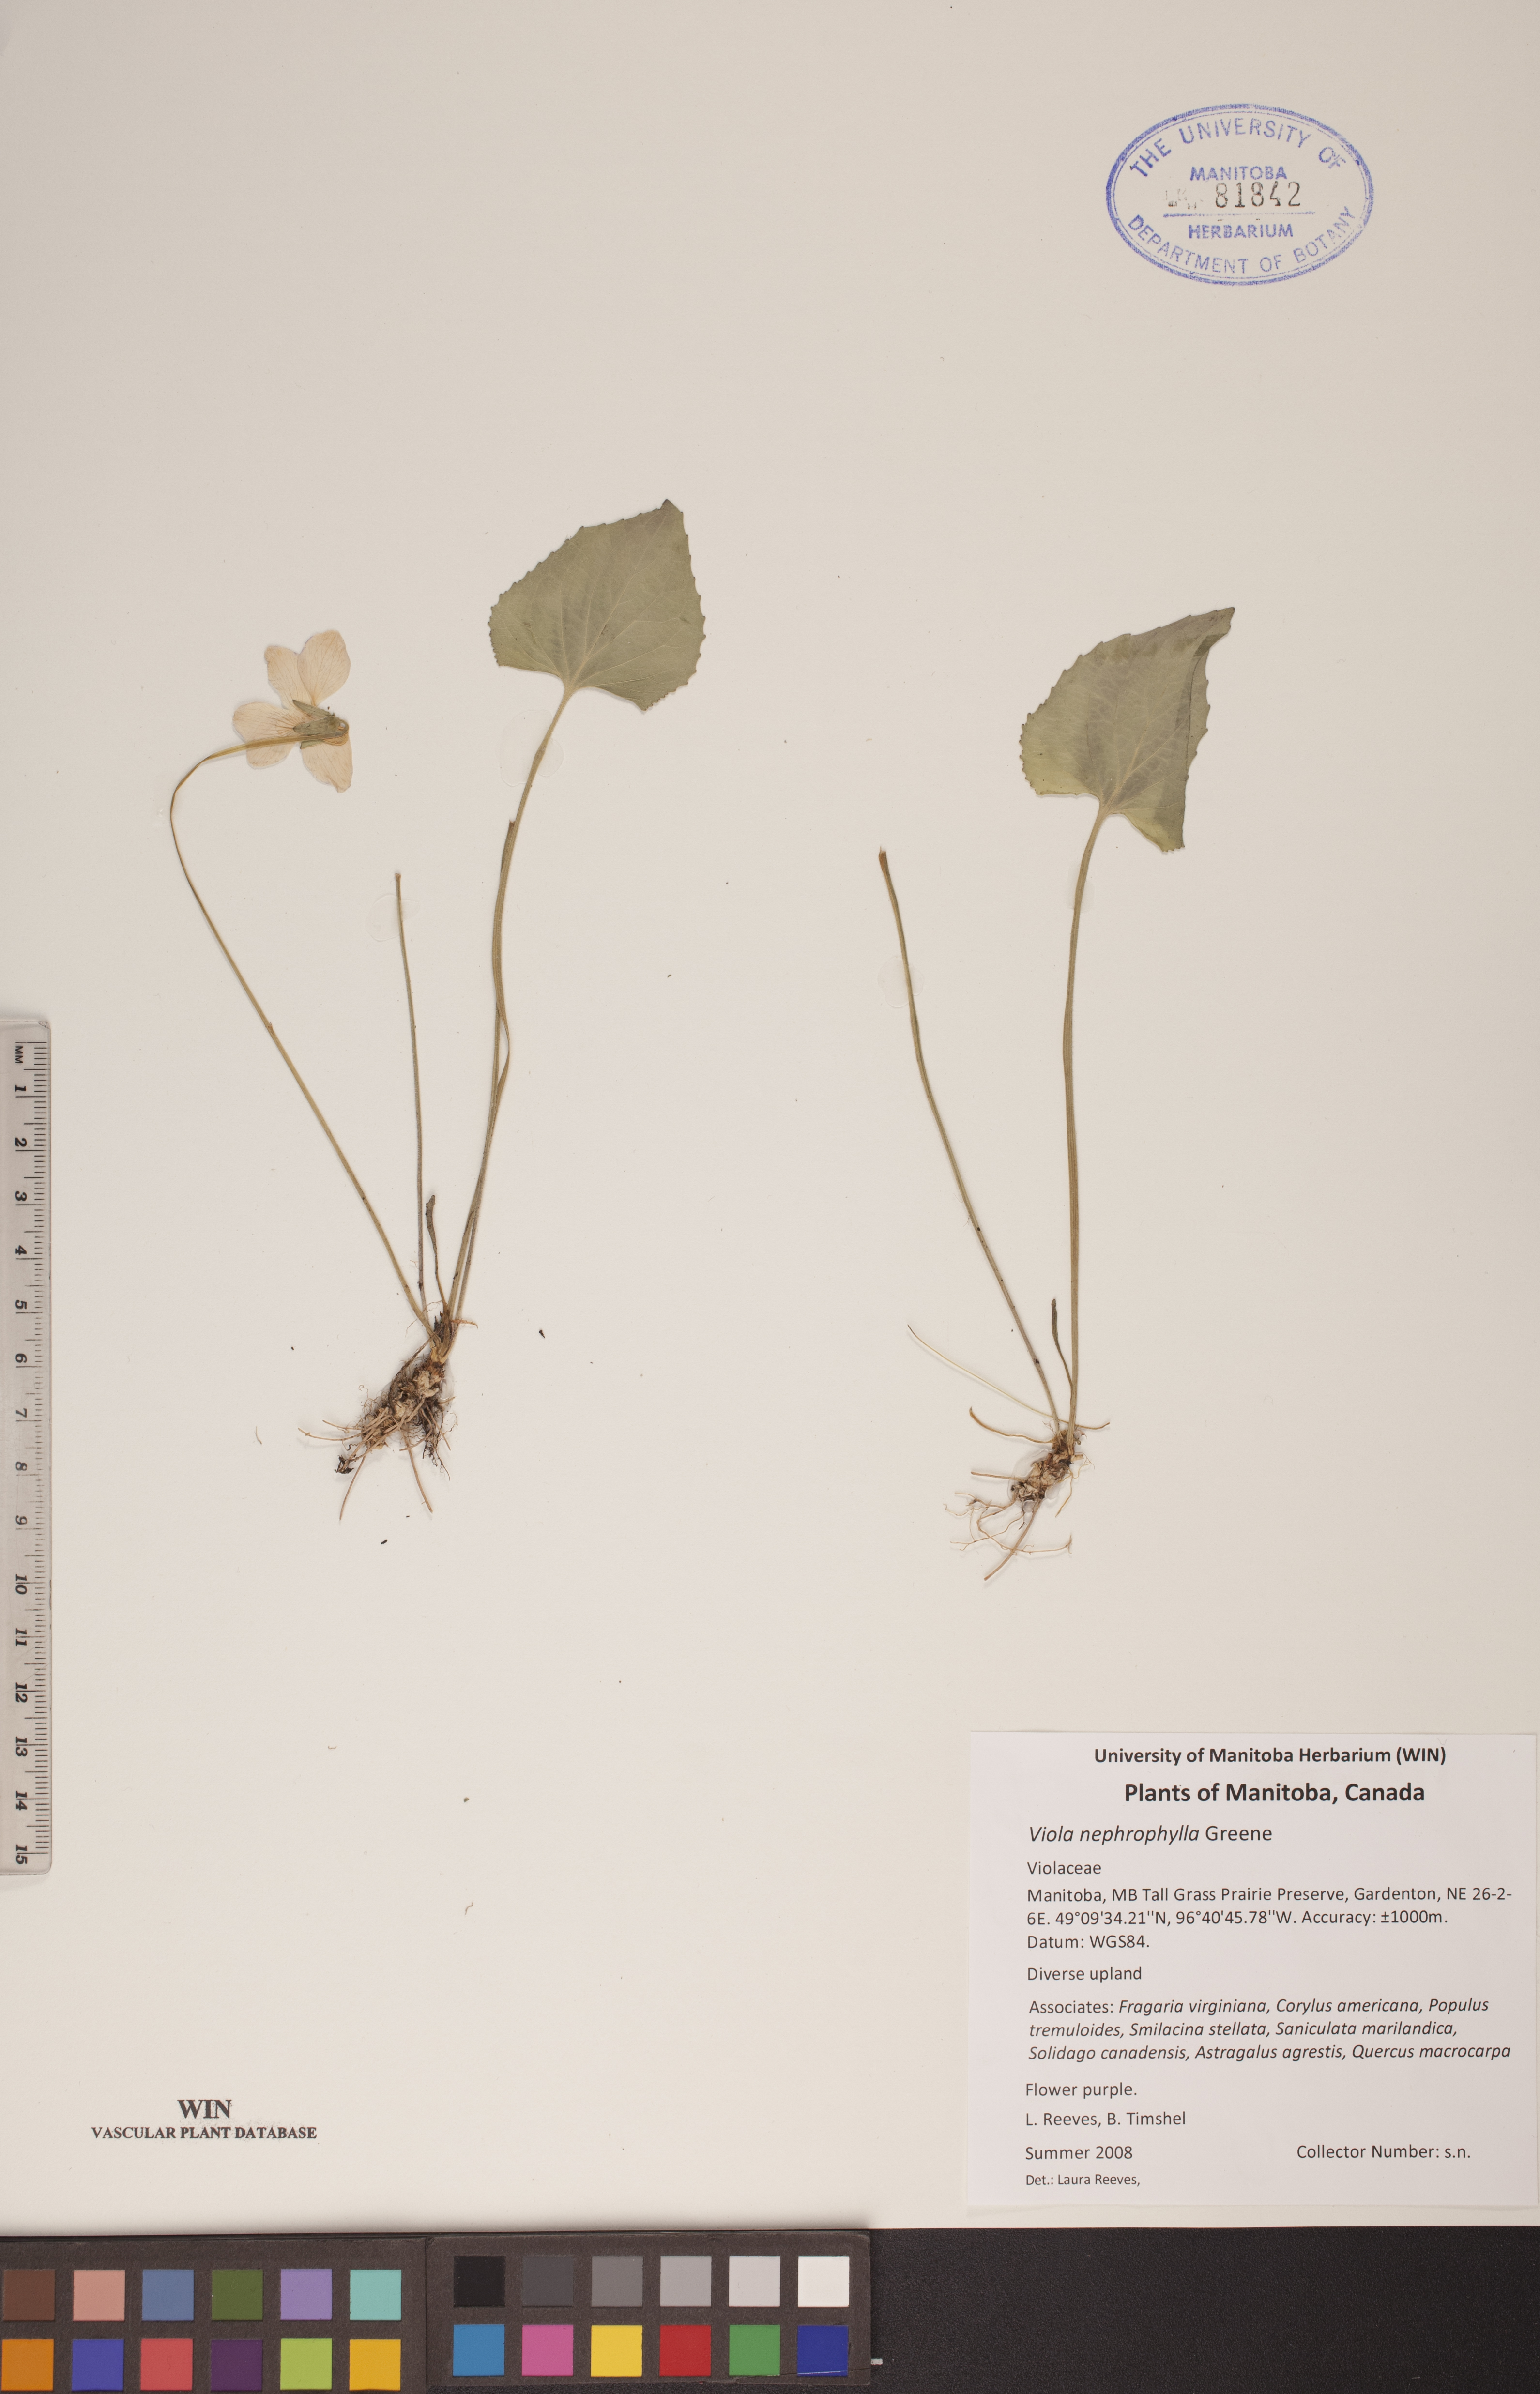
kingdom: Plantae
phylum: Tracheophyta
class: Magnoliopsida
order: Malpighiales
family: Violaceae
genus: Viola
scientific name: Viola nephrophylla
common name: Blue meadow violet
